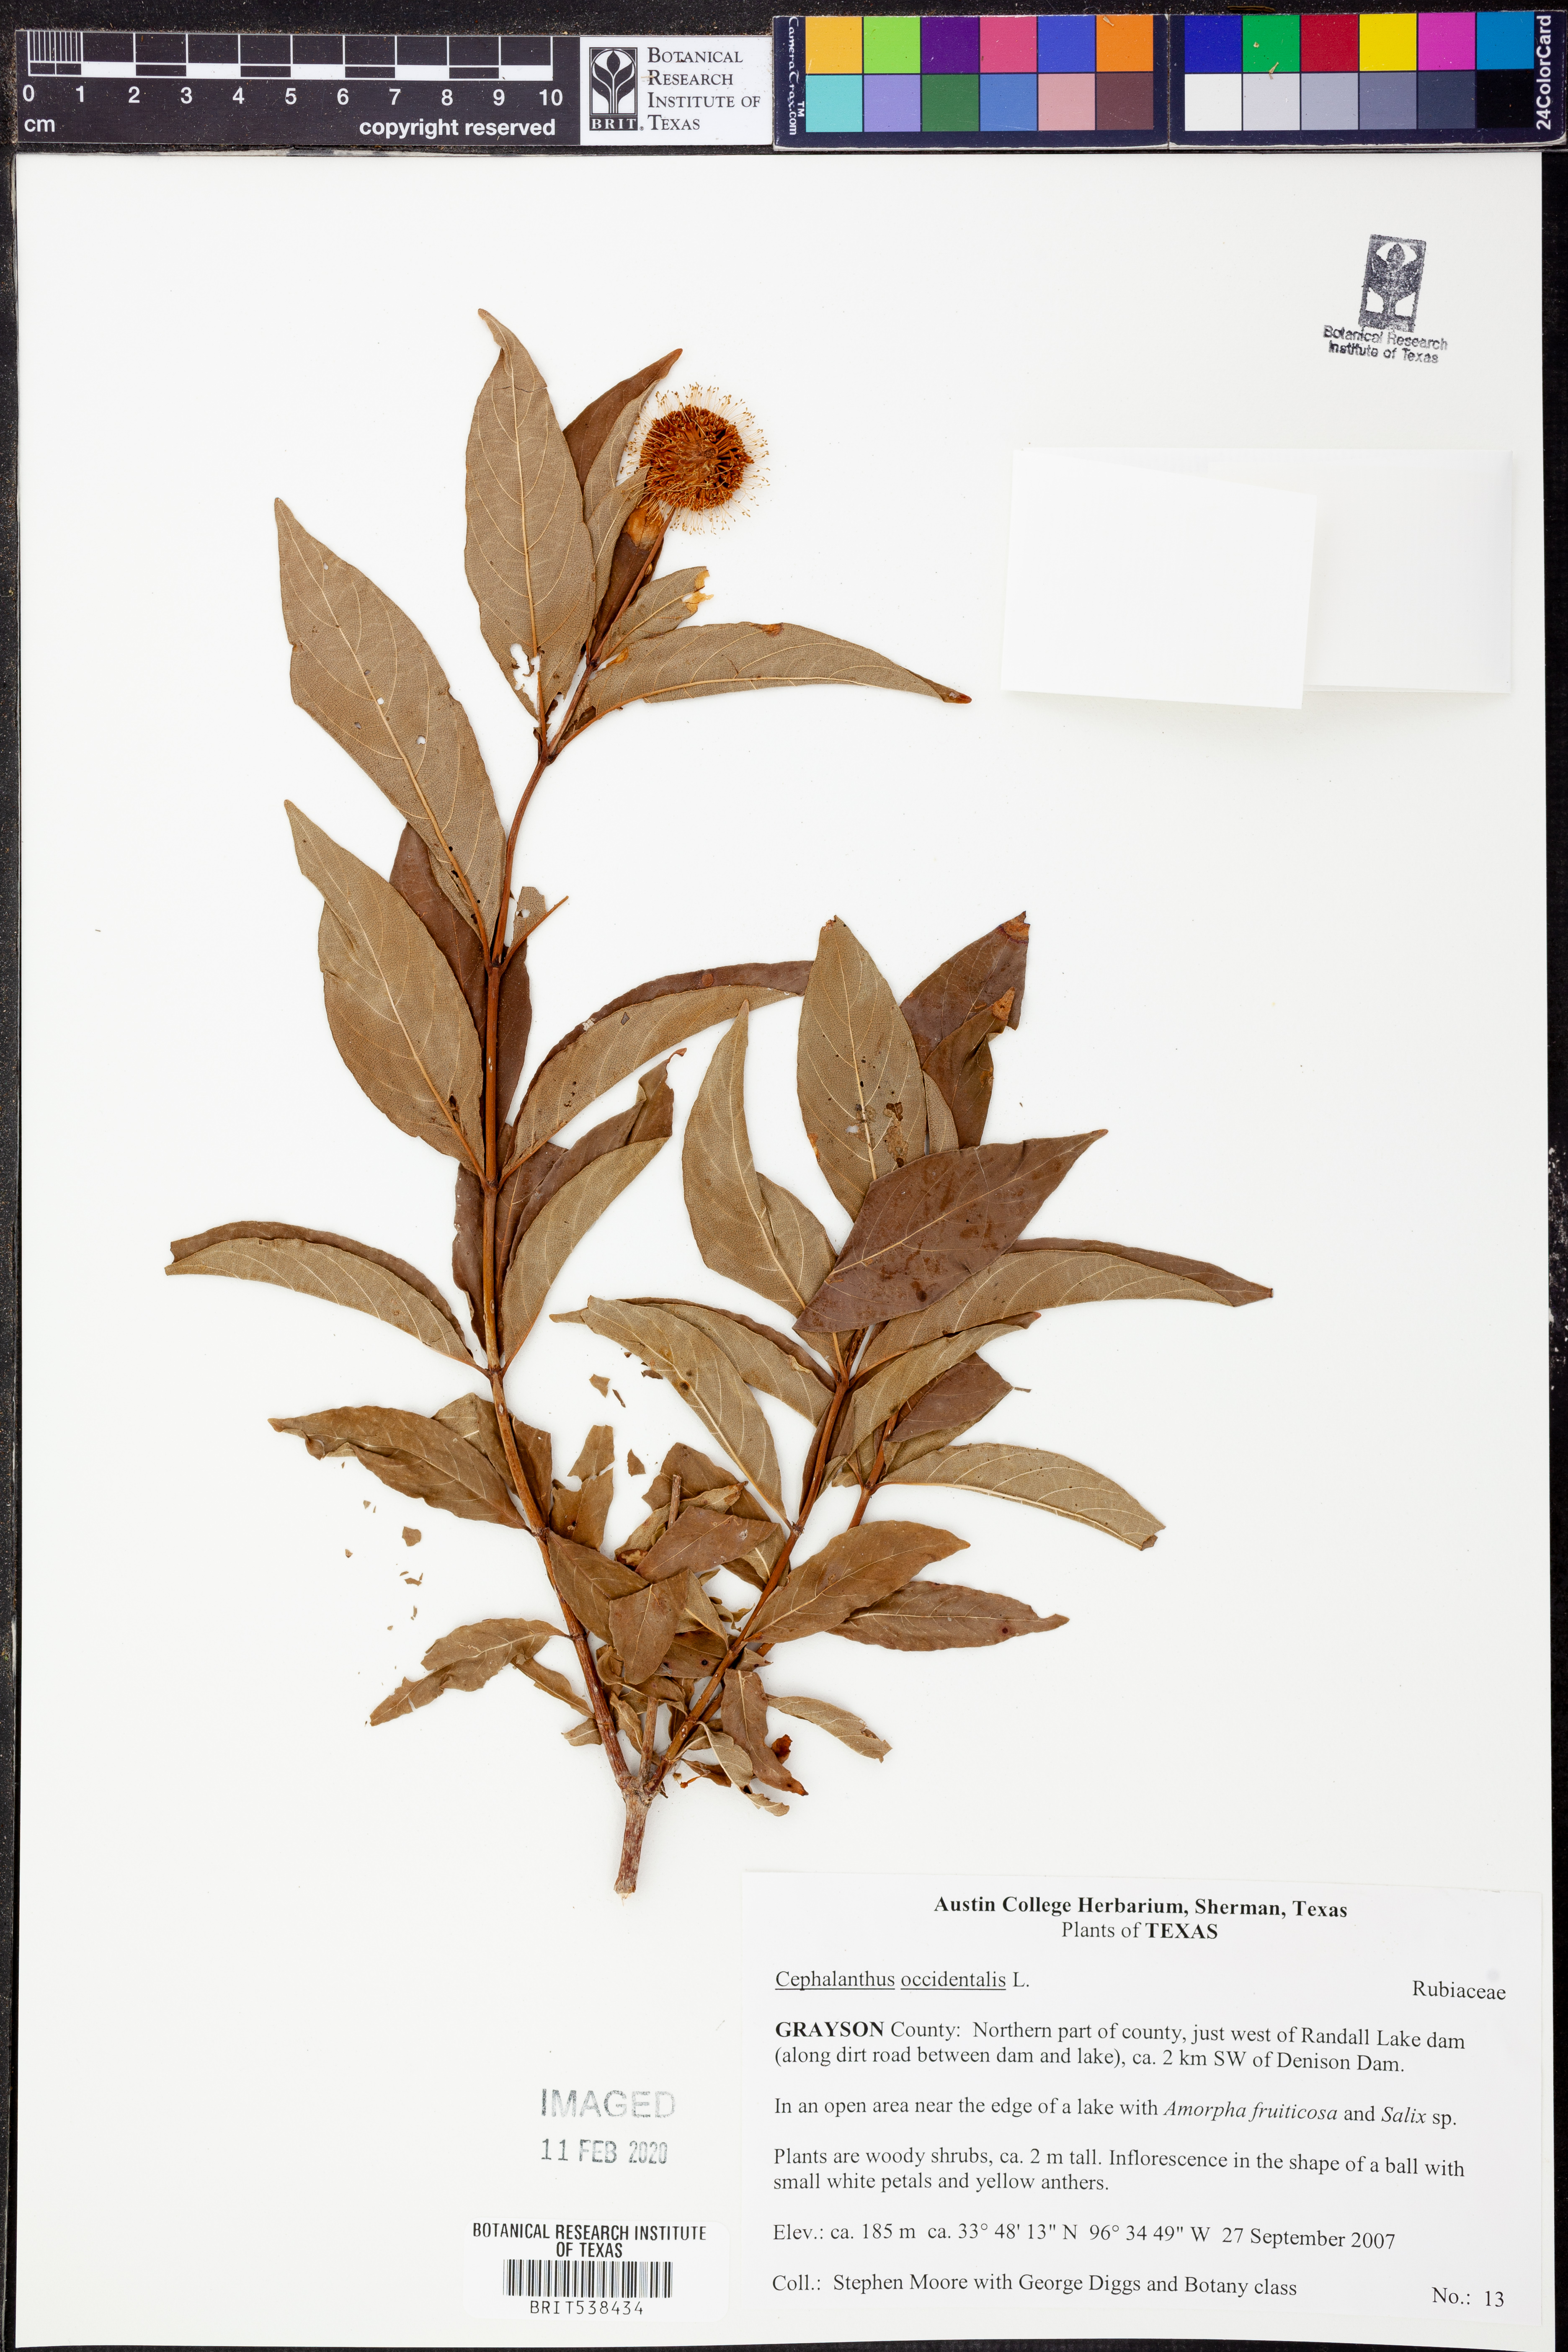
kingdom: Plantae
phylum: Tracheophyta
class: Magnoliopsida
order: Gentianales
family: Rubiaceae
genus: Cephalanthus
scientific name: Cephalanthus occidentalis
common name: Button-willow
